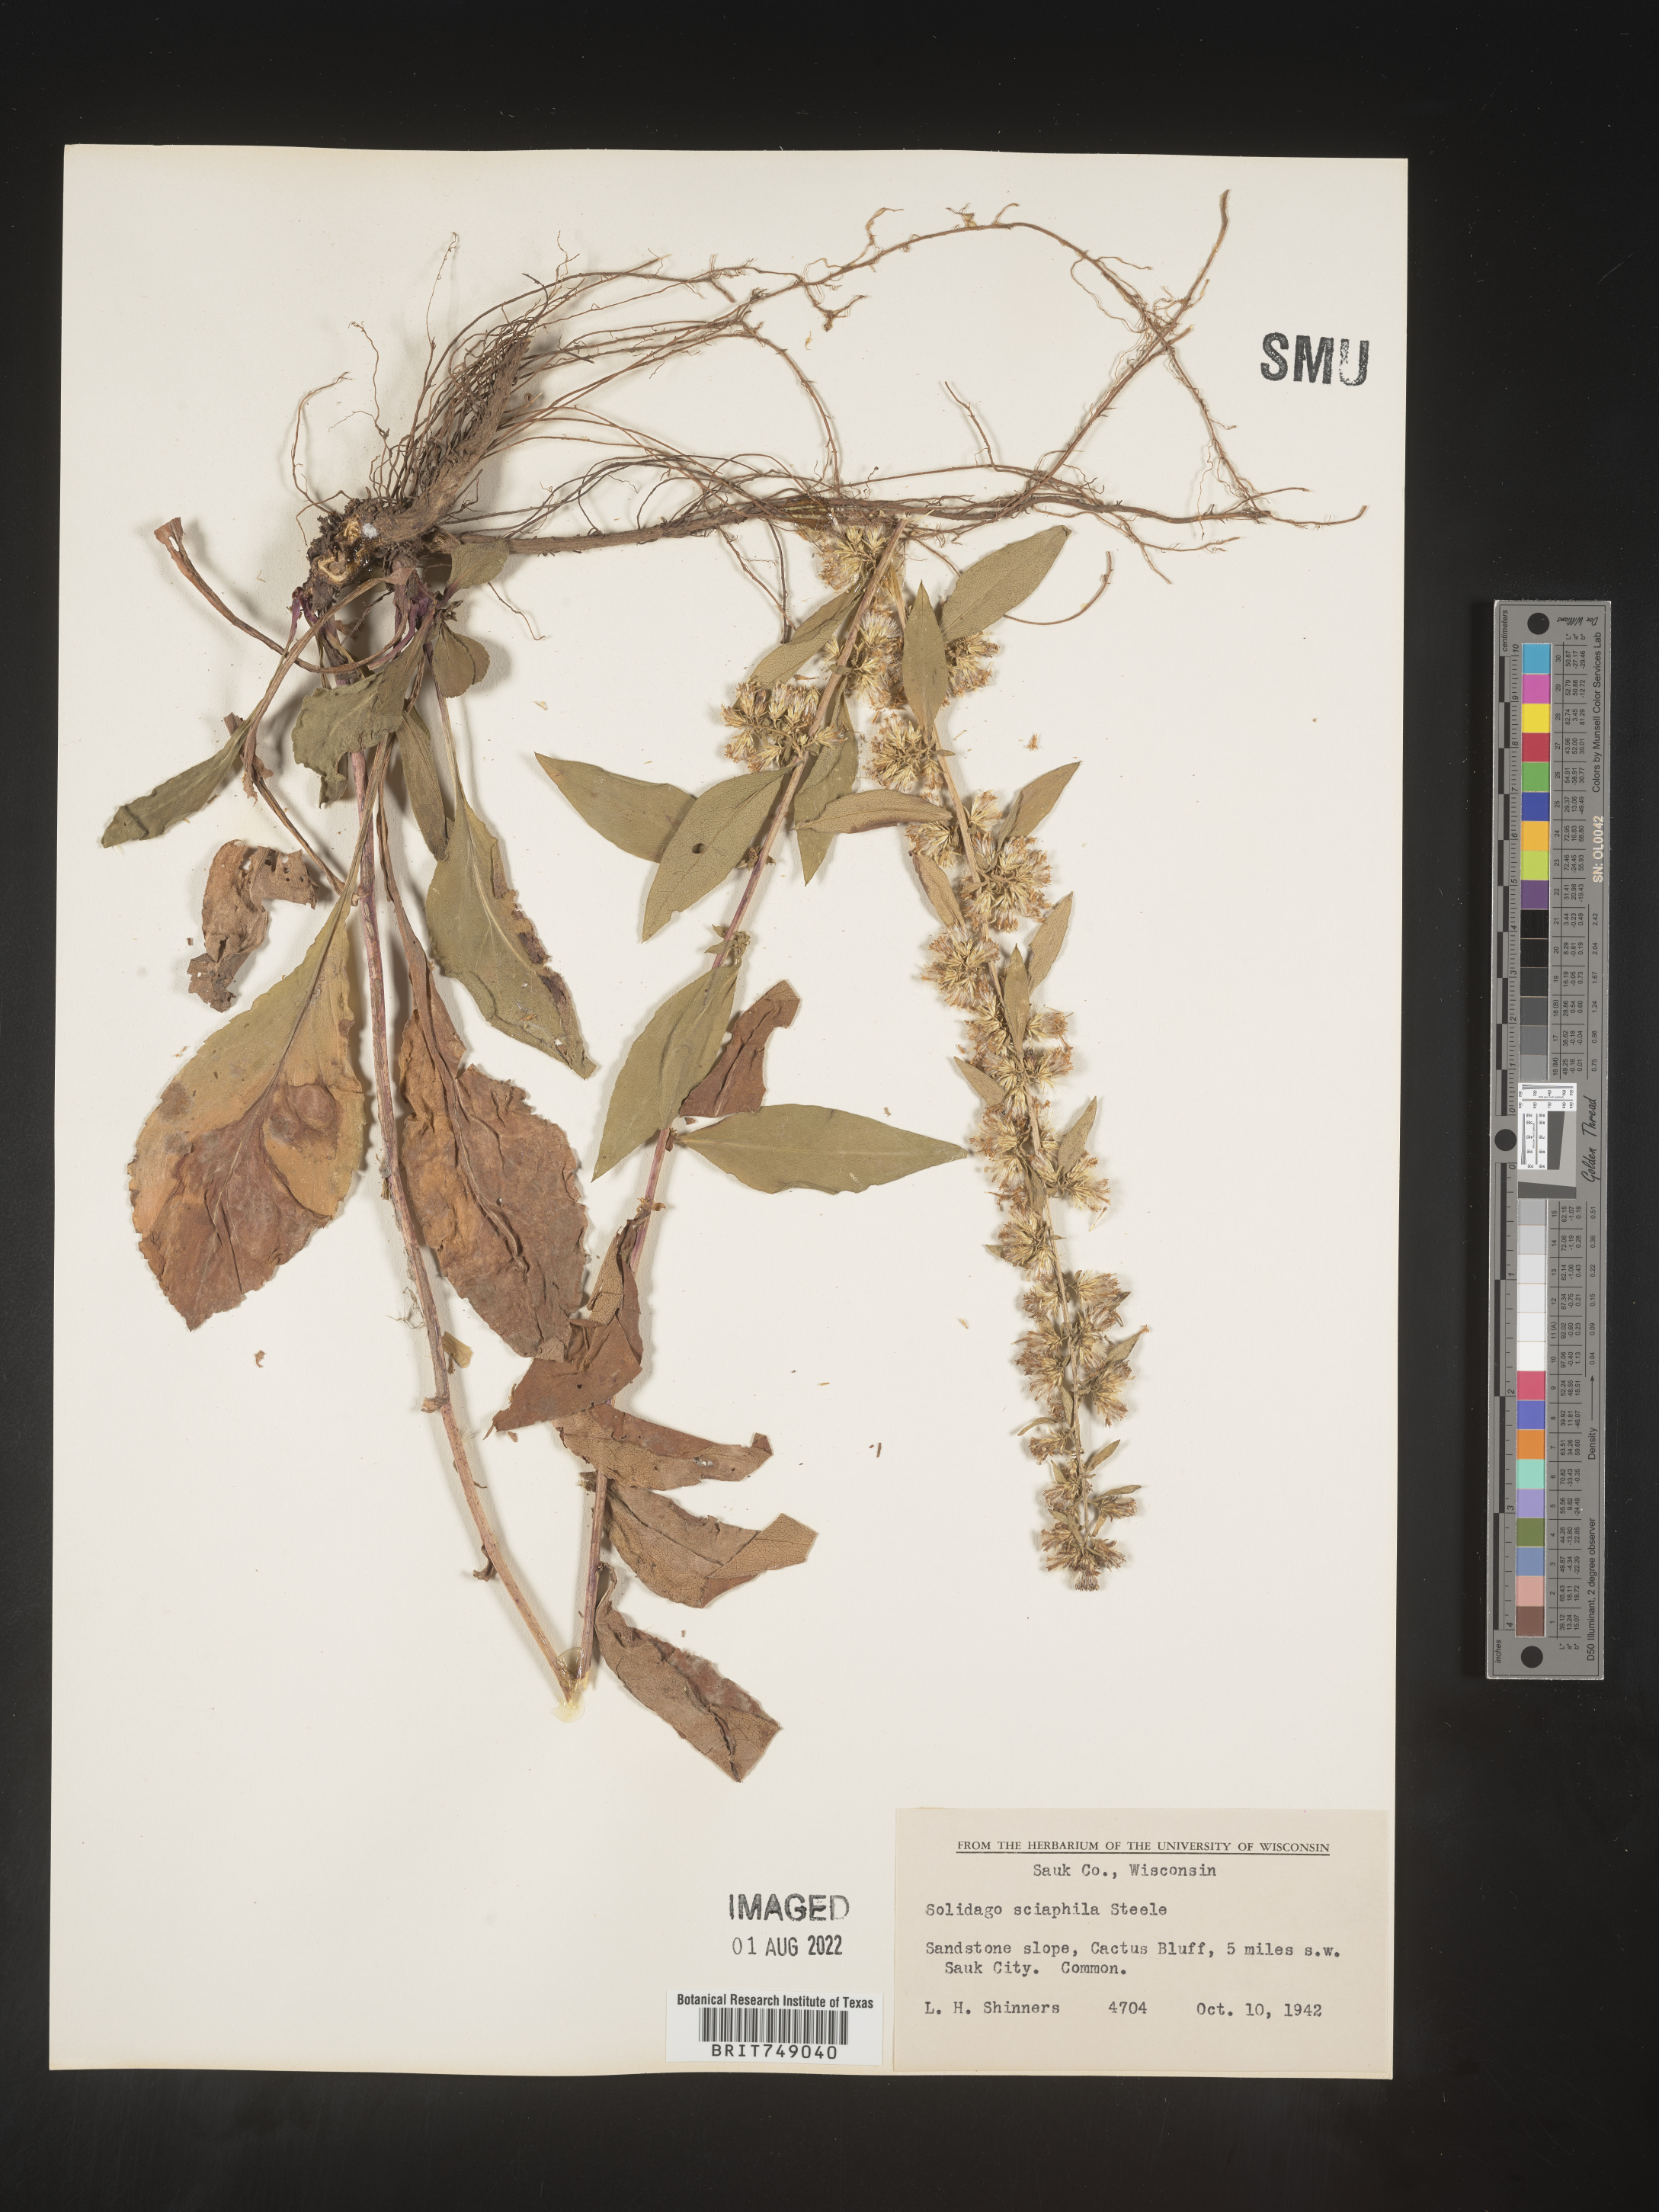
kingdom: Plantae
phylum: Tracheophyta
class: Magnoliopsida
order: Asterales
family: Asteraceae
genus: Solidago
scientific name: Solidago sciaphila
